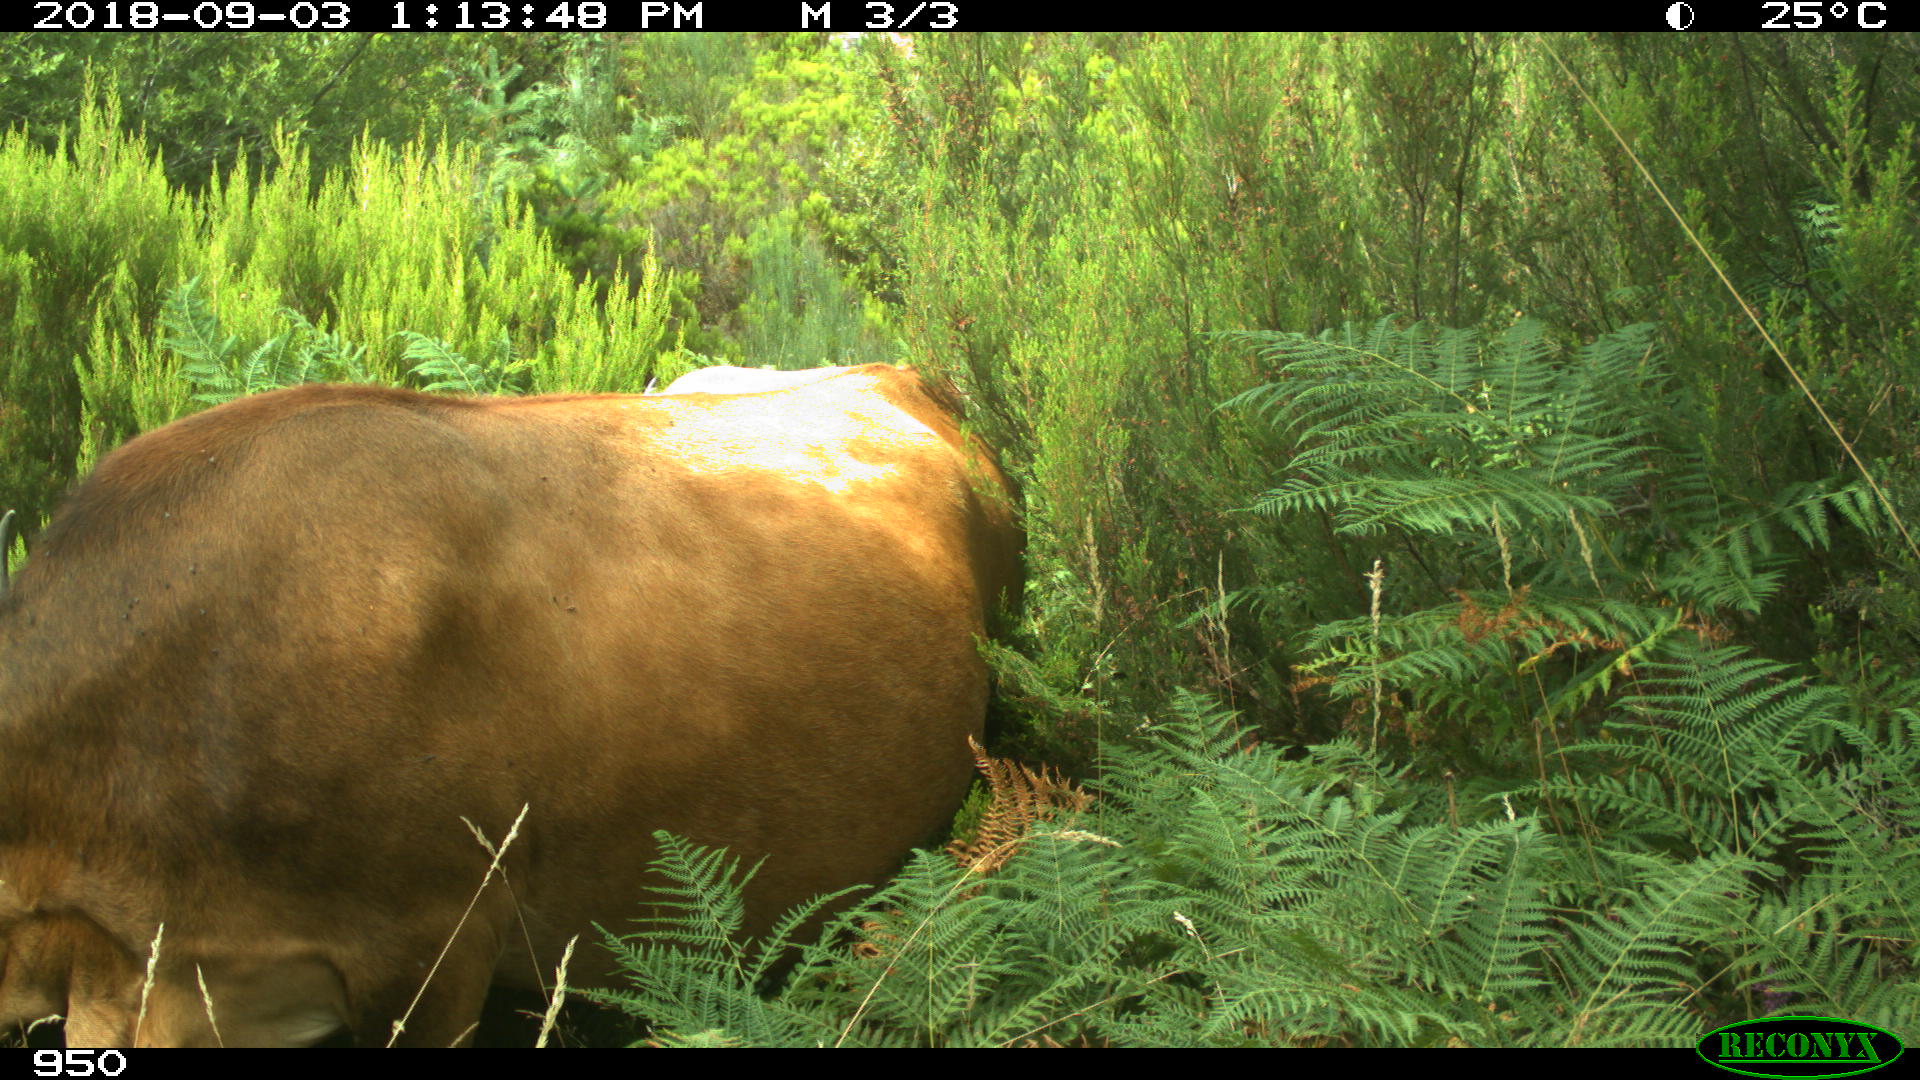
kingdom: Animalia
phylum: Chordata
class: Mammalia
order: Artiodactyla
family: Bovidae
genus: Bos
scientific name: Bos taurus
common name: Domesticated cattle
